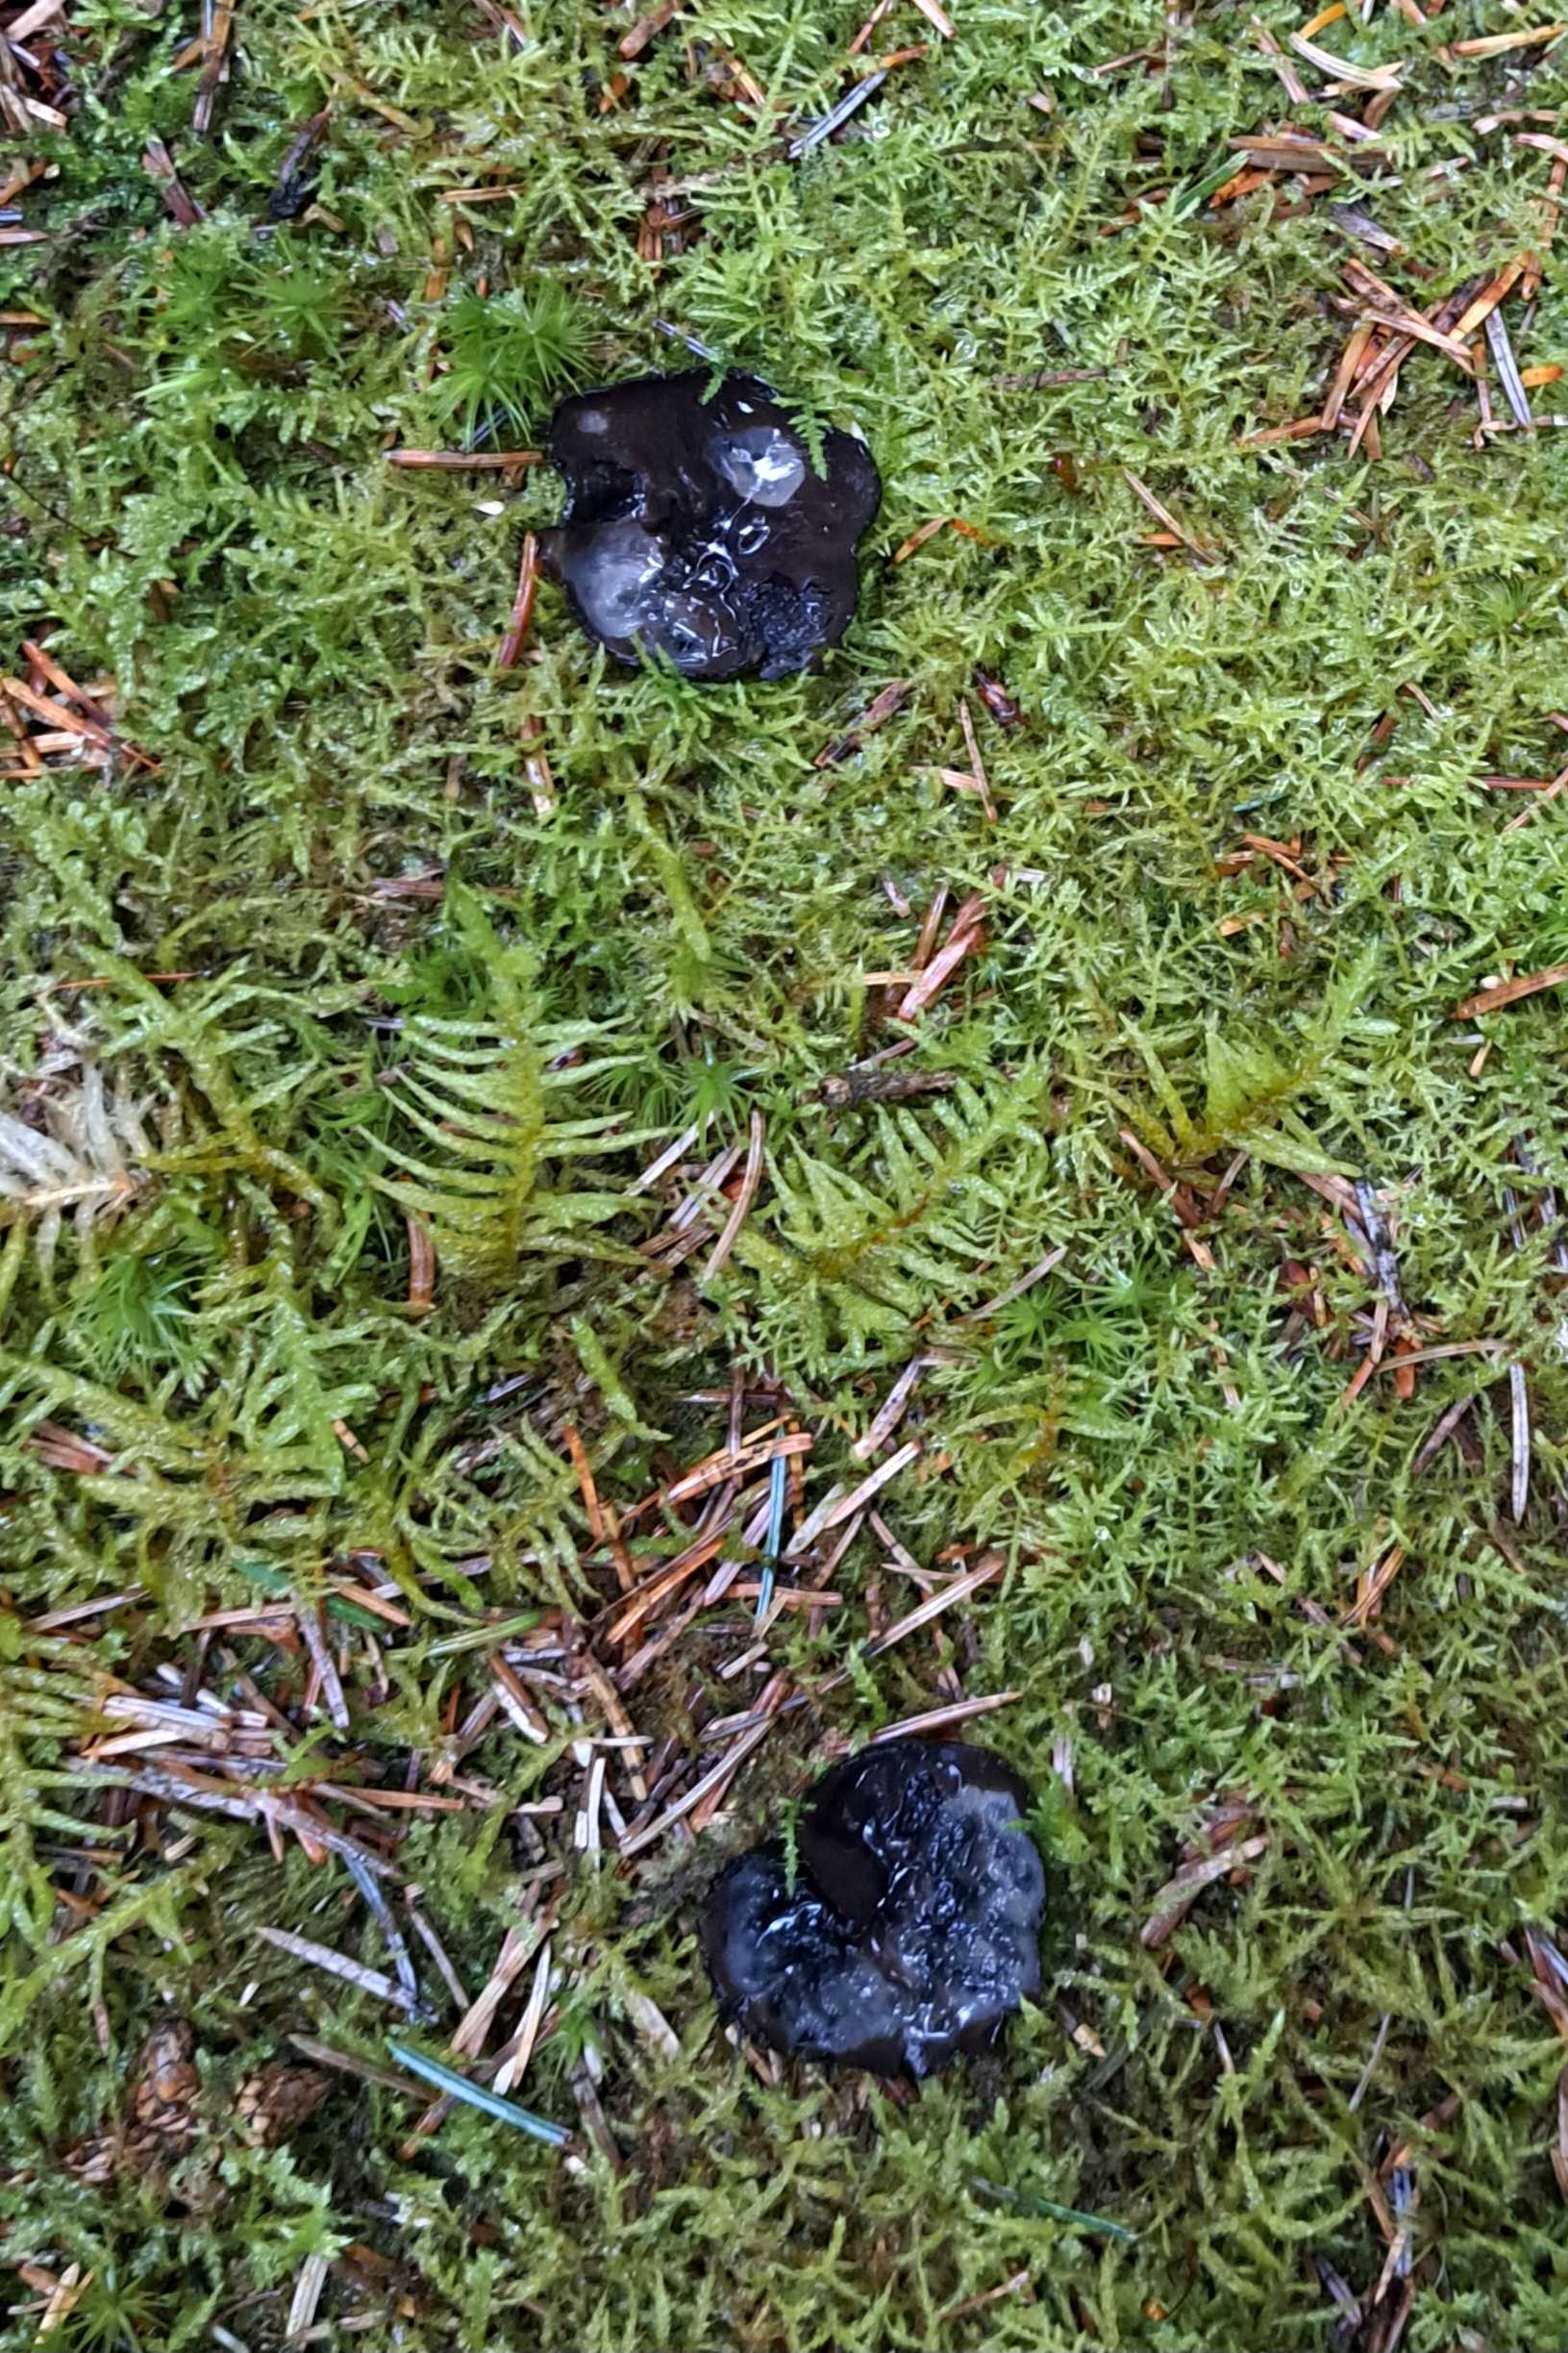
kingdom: Fungi
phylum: Ascomycota
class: Pezizomycetes
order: Pezizales
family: Sarcosomataceae
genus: Pseudoplectania
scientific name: Pseudoplectania nigrella
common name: almindelig sortbæger
